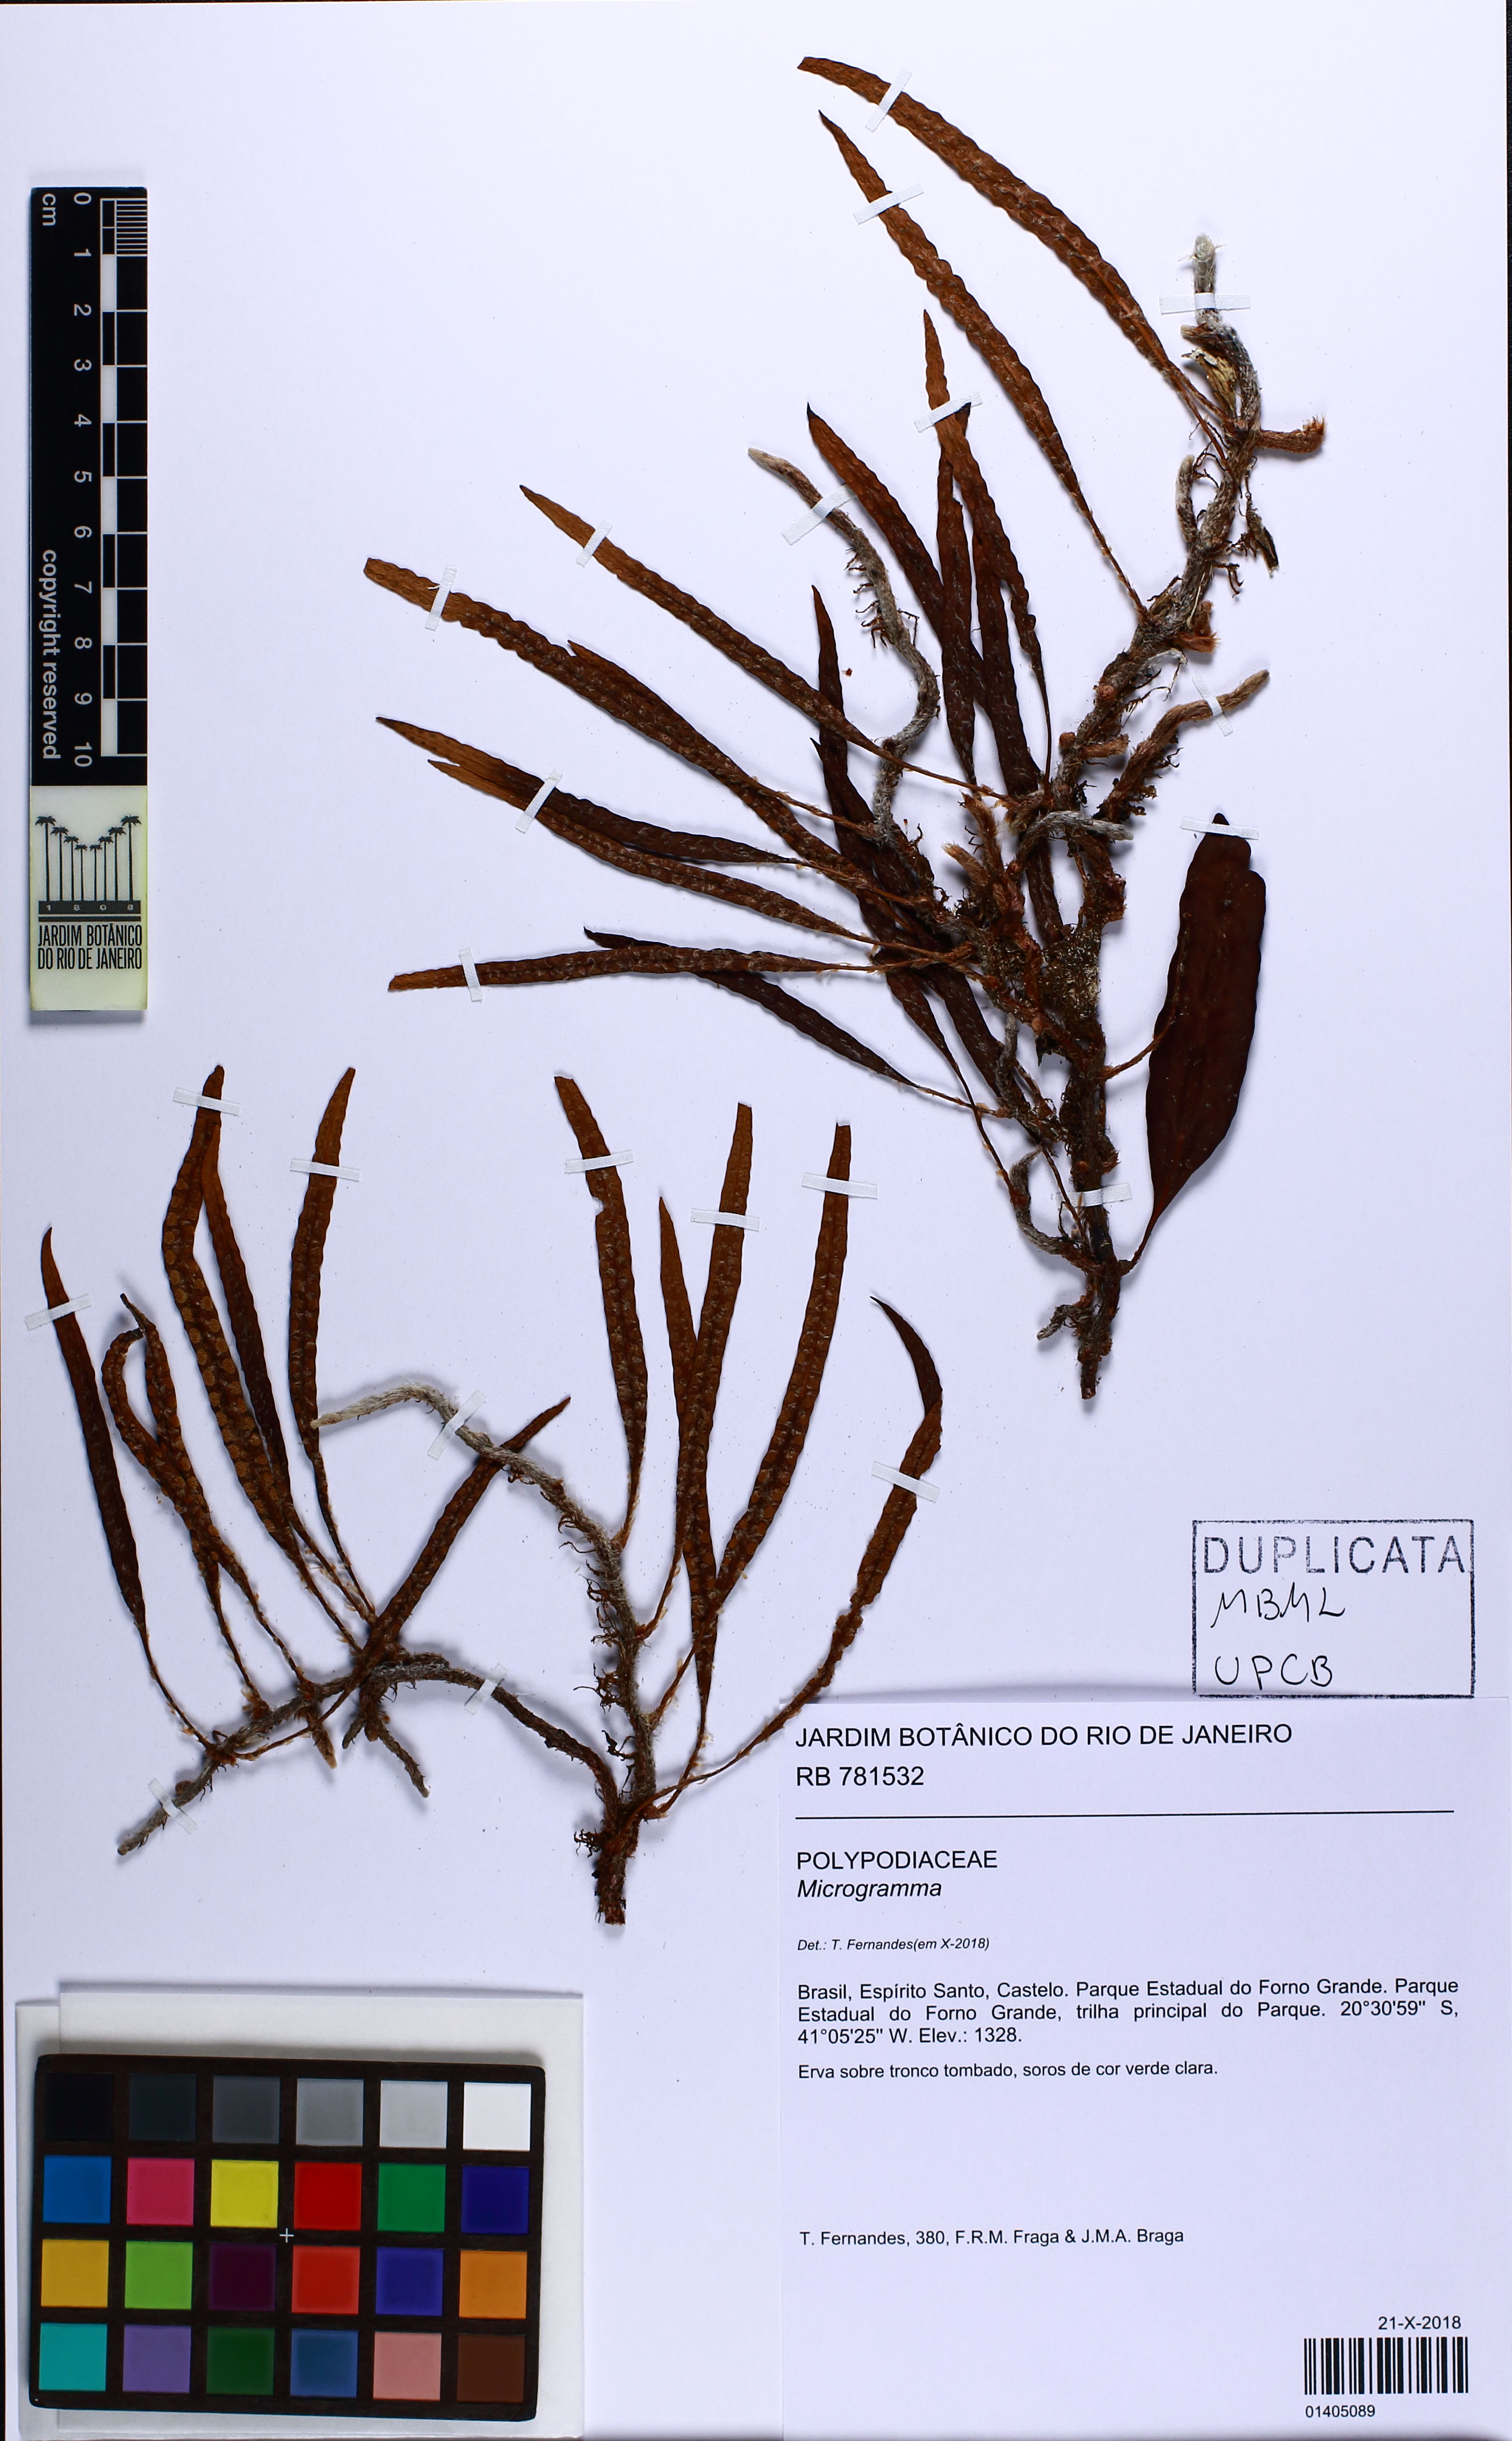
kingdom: Plantae
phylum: Tracheophyta
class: Polypodiopsida
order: Polypodiales
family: Polypodiaceae
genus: Microgramma
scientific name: Microgramma squamulosa
